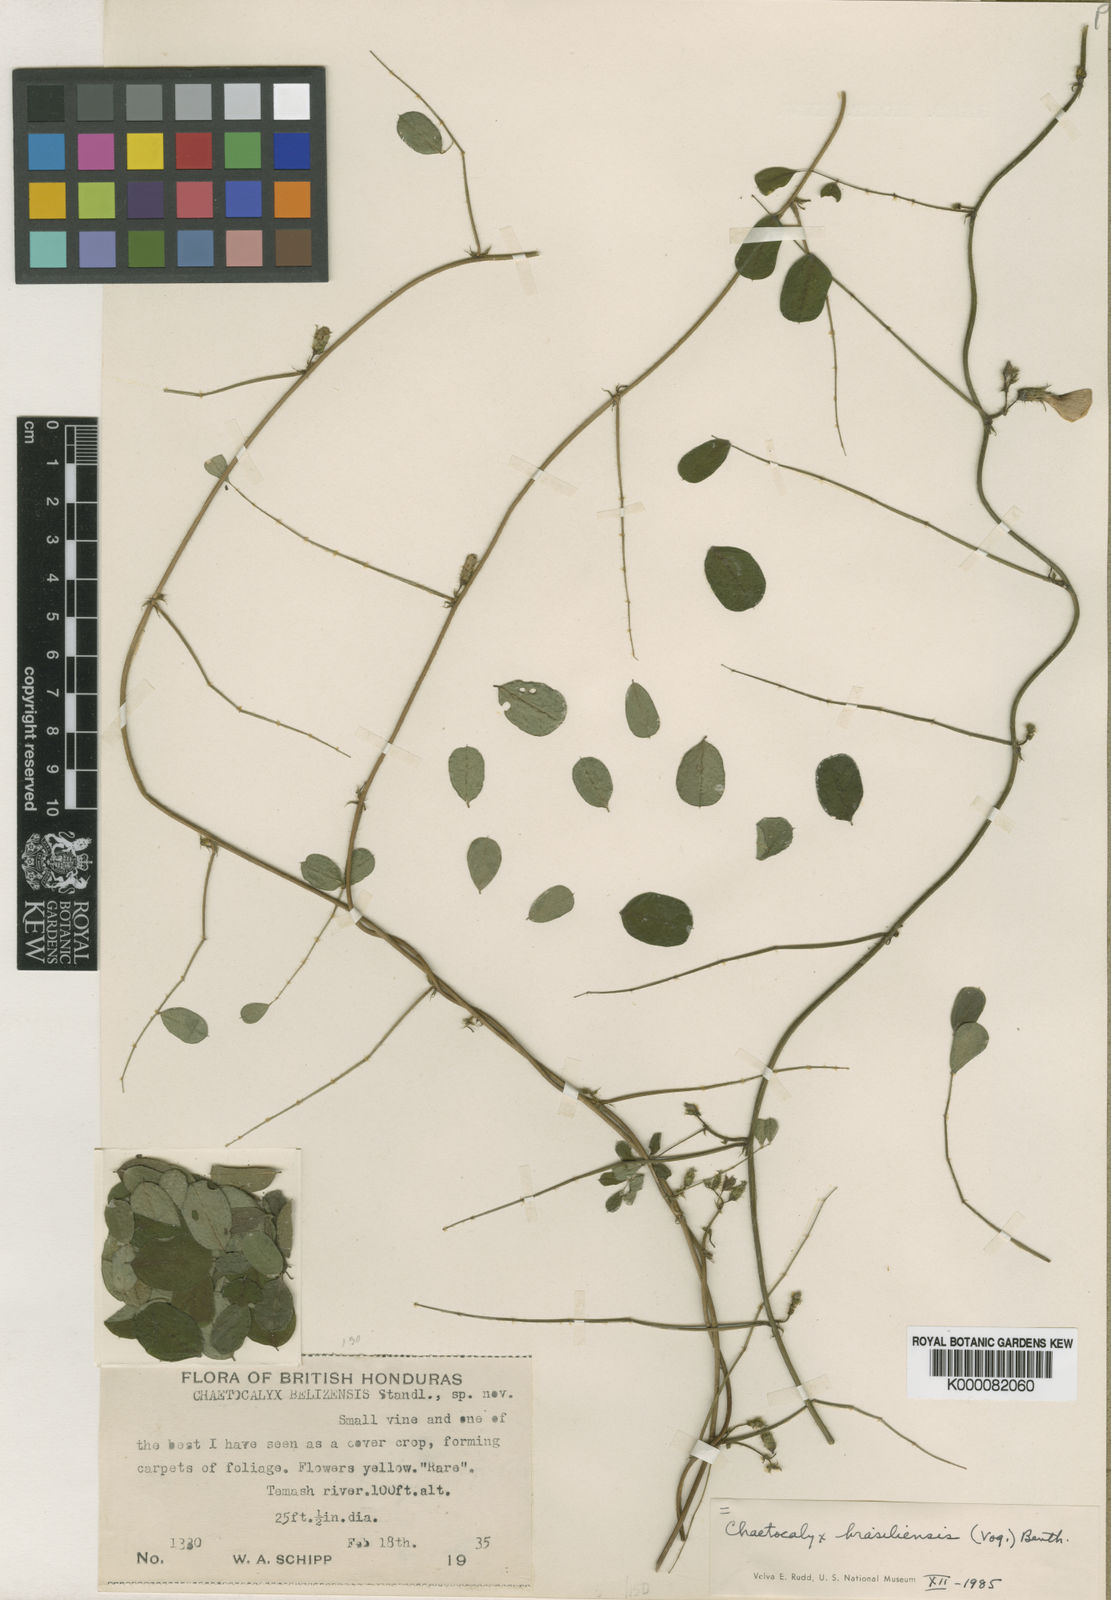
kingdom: Plantae
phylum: Tracheophyta
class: Magnoliopsida
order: Fabales
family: Fabaceae
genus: Nissolia
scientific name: Nissolia brasiliensis
